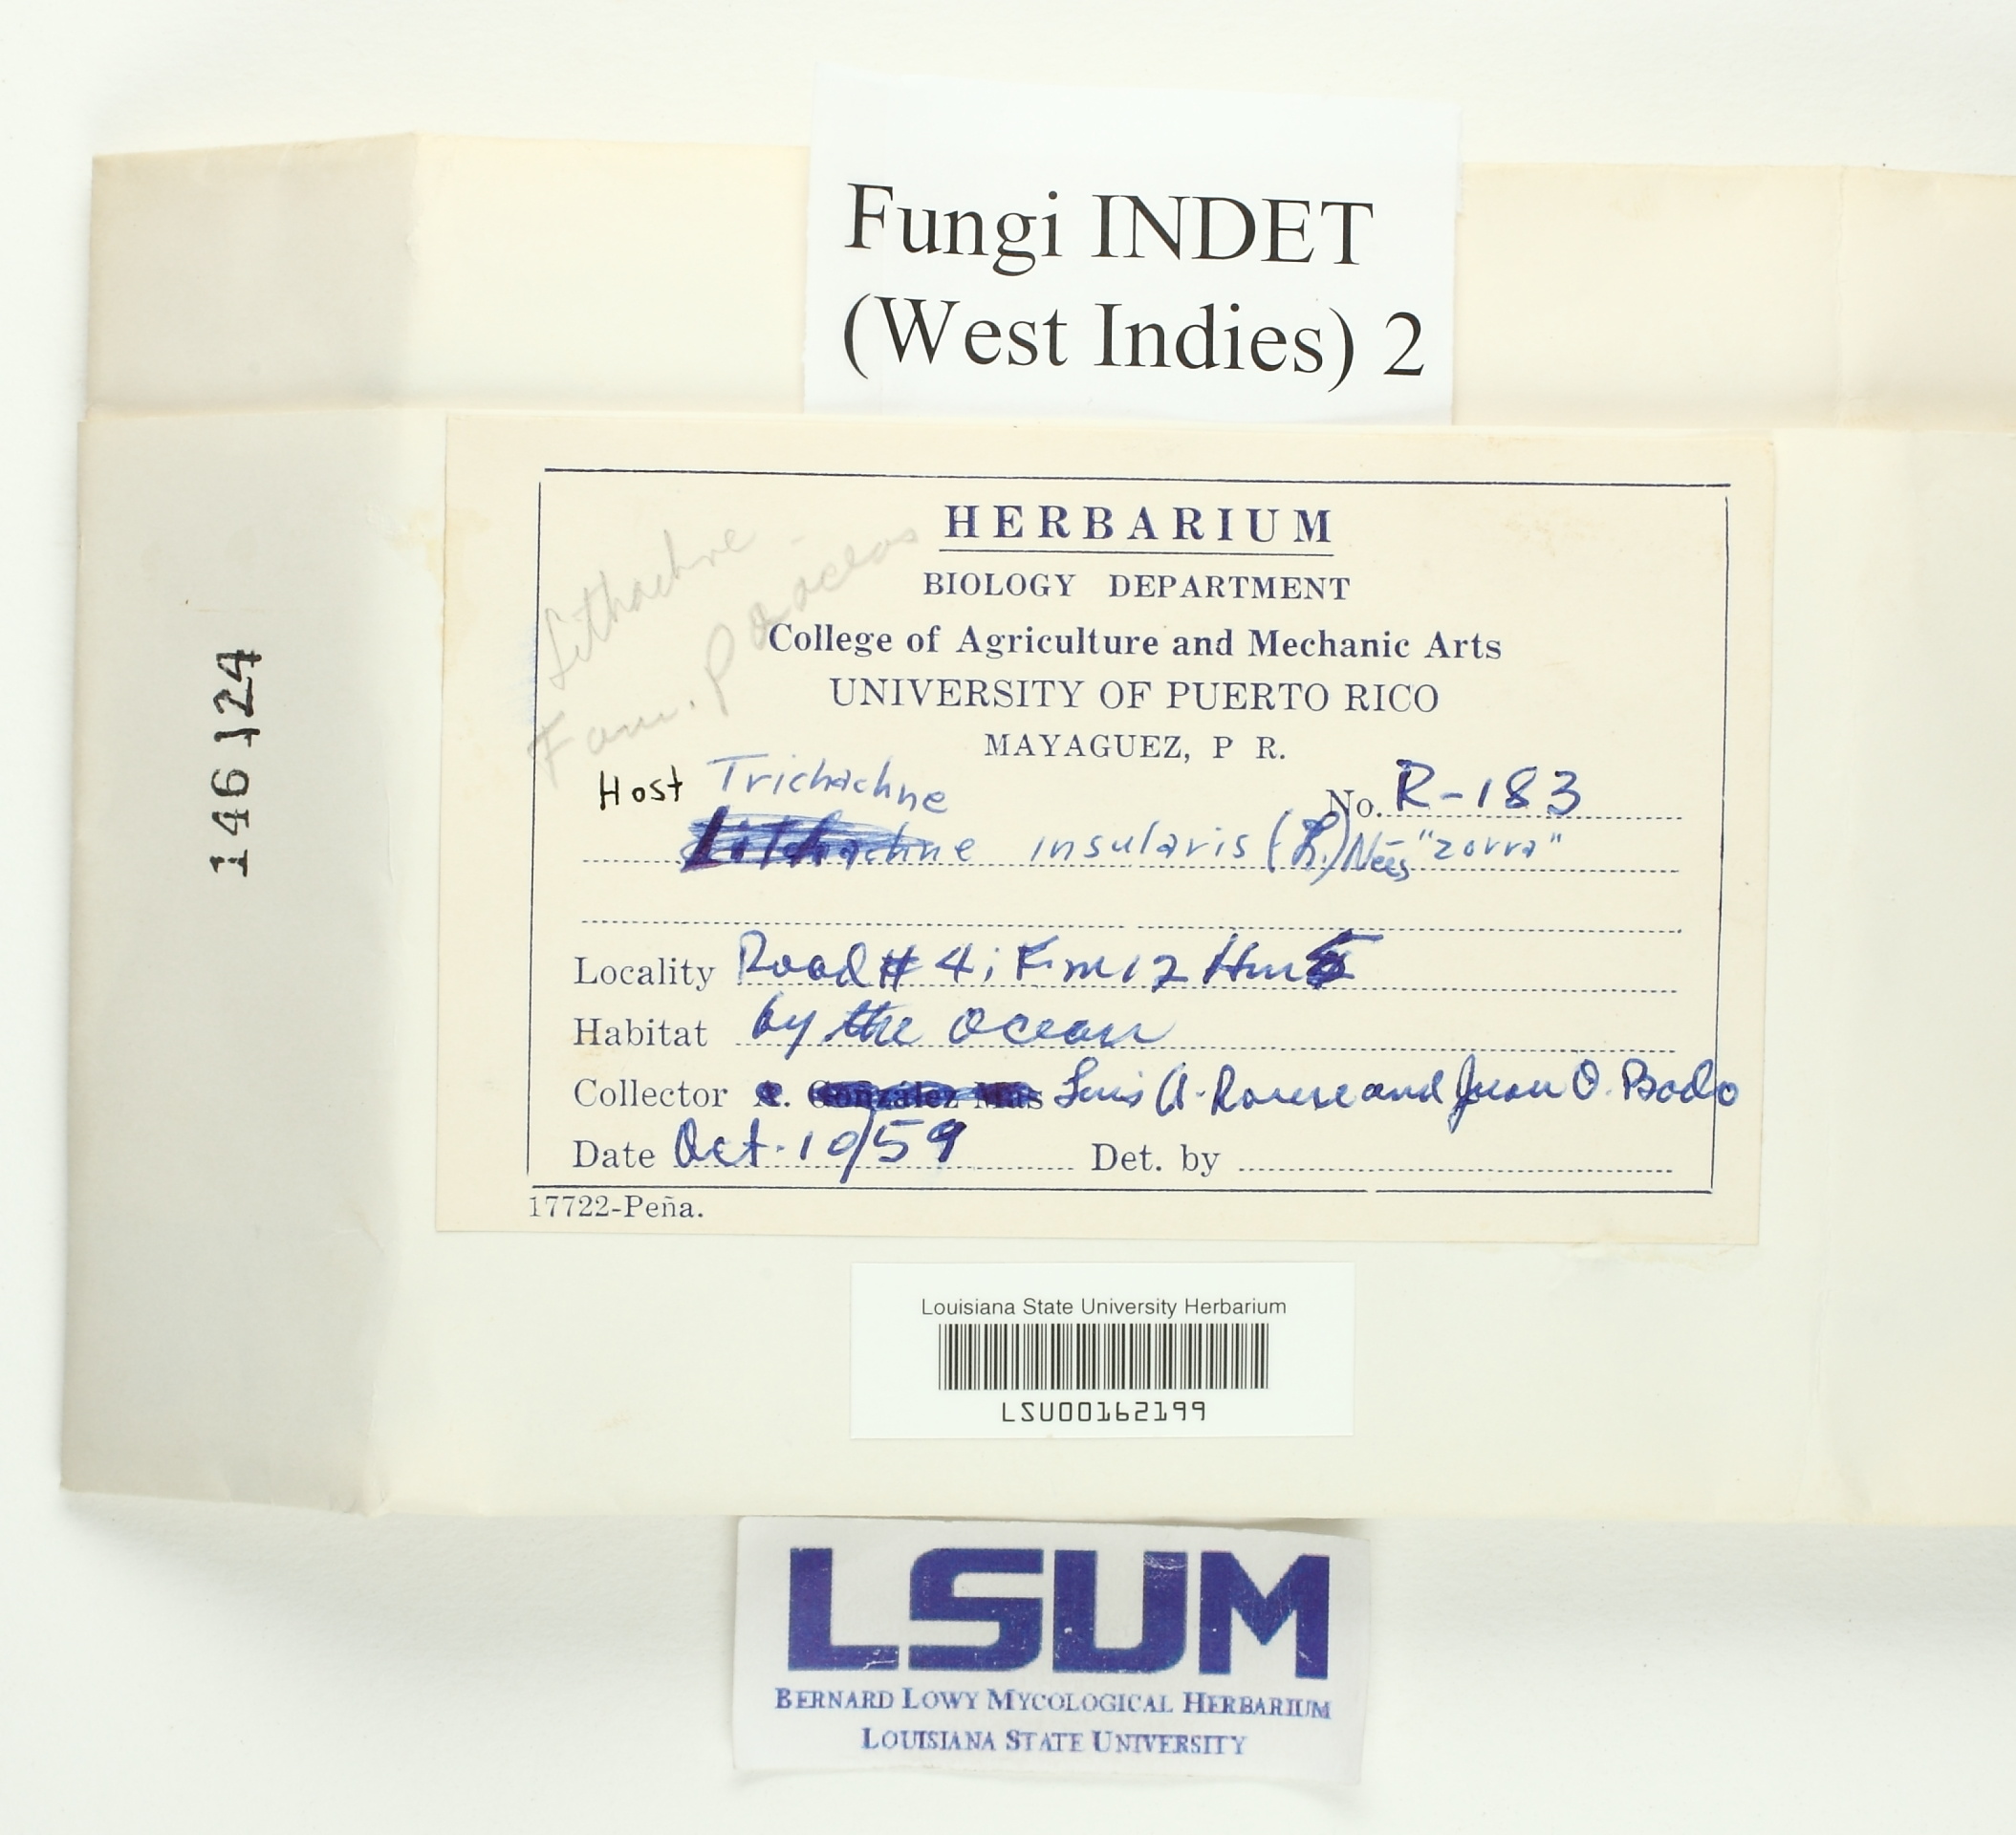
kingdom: Fungi
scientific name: Fungi
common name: Fungi
